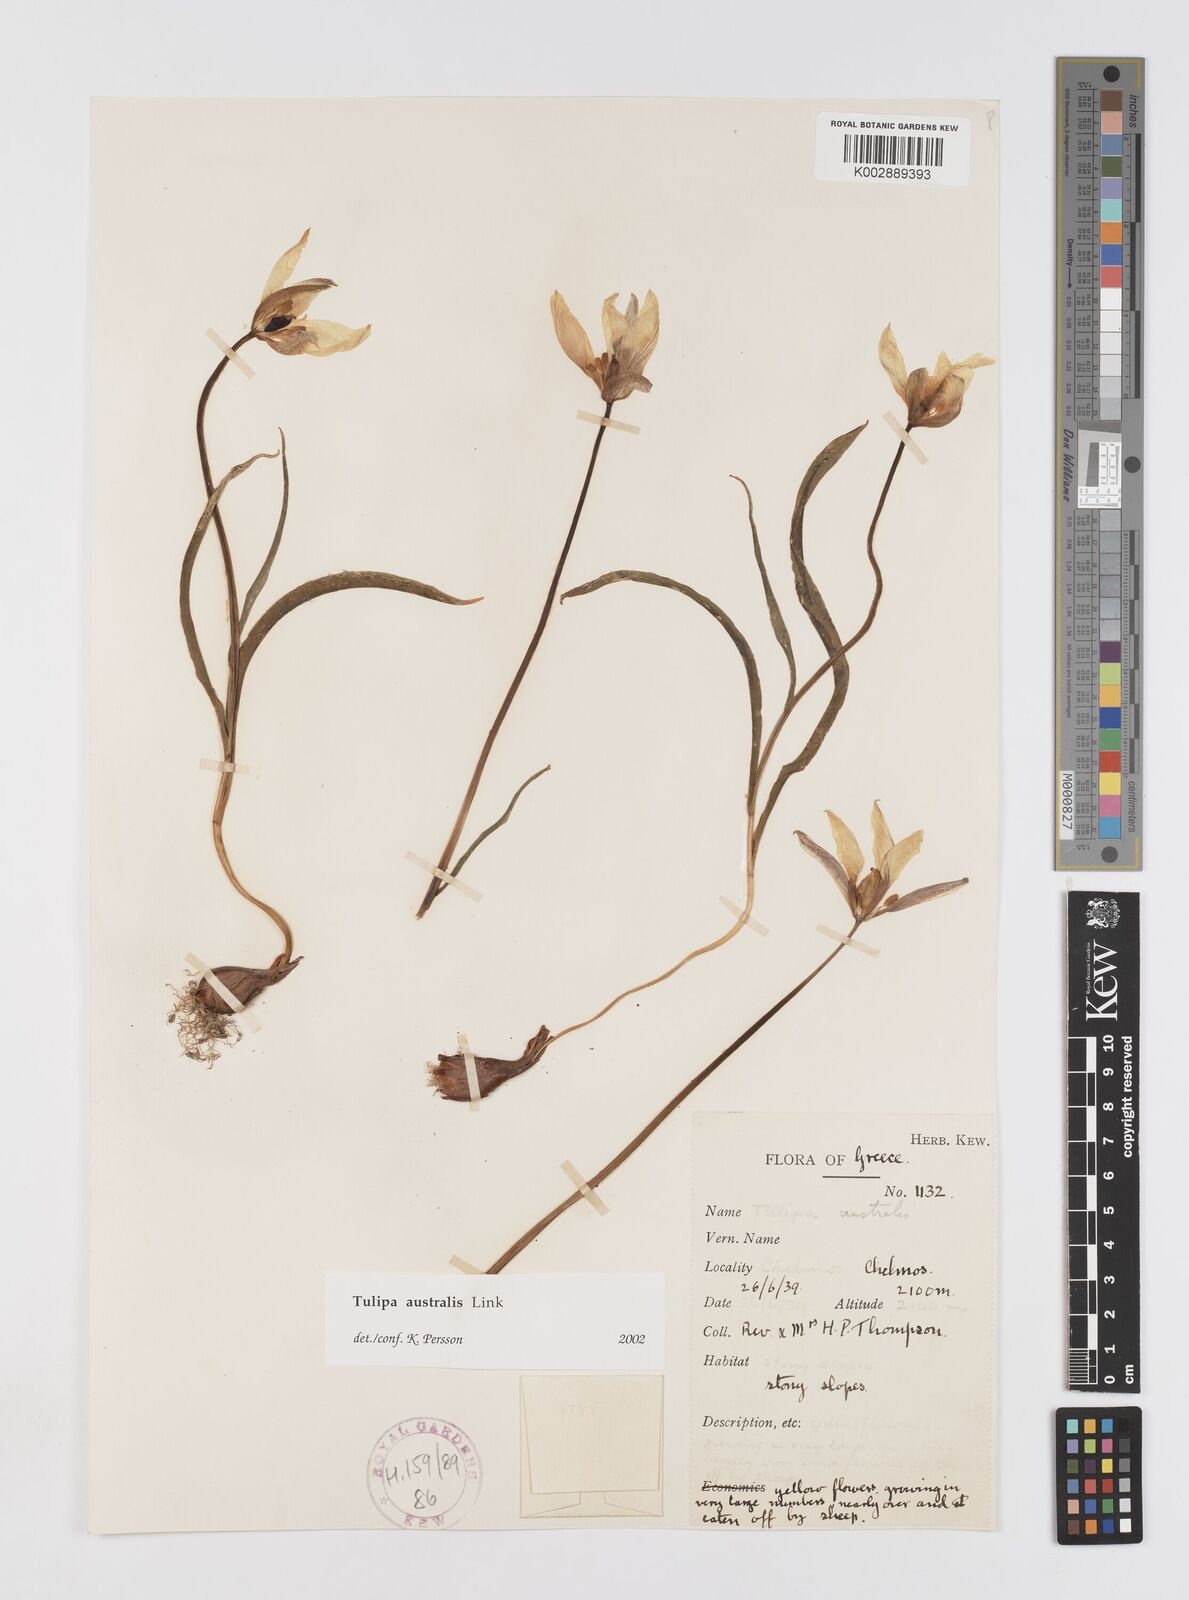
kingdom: Plantae
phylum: Tracheophyta
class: Liliopsida
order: Liliales
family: Liliaceae
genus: Tulipa
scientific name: Tulipa sylvestris
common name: Wild tulip
